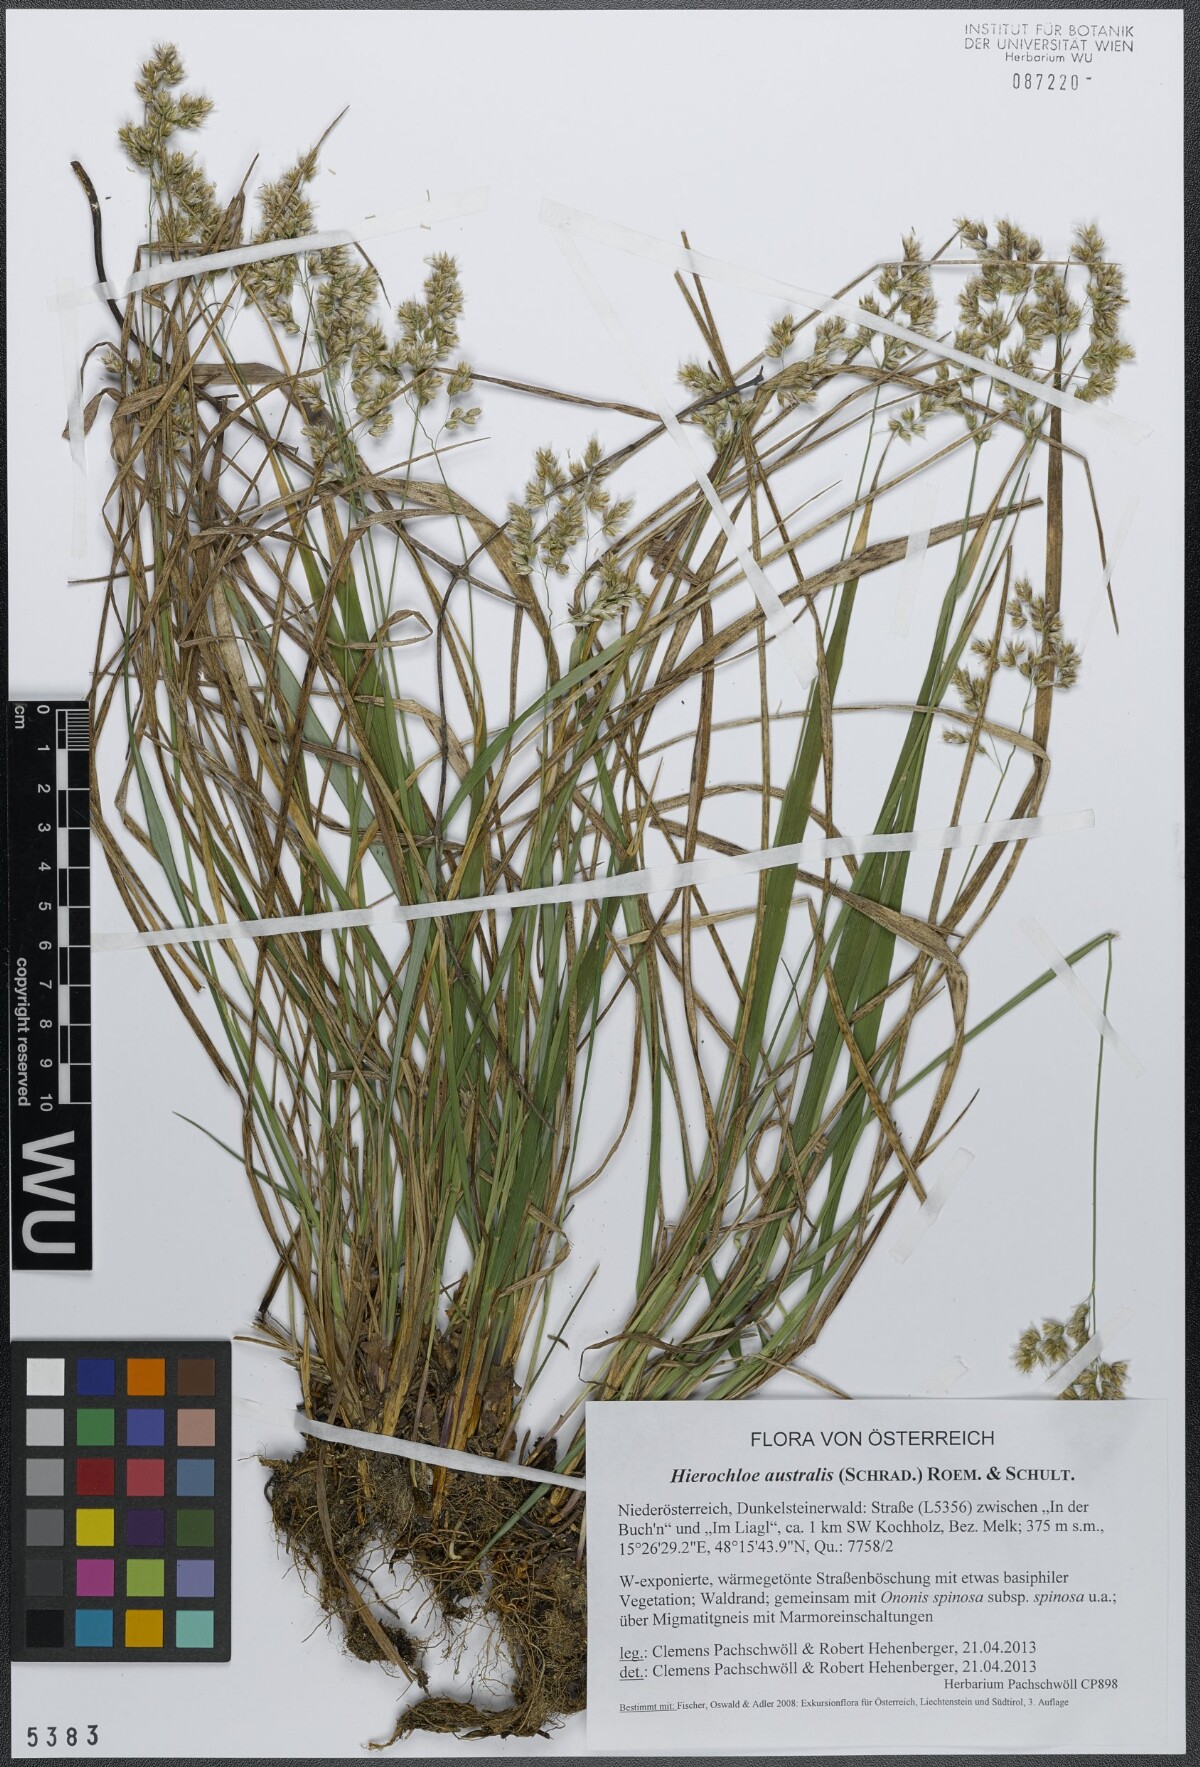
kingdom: Plantae
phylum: Tracheophyta
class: Liliopsida
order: Poales
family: Poaceae
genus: Anthoxanthum
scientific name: Anthoxanthum australe
